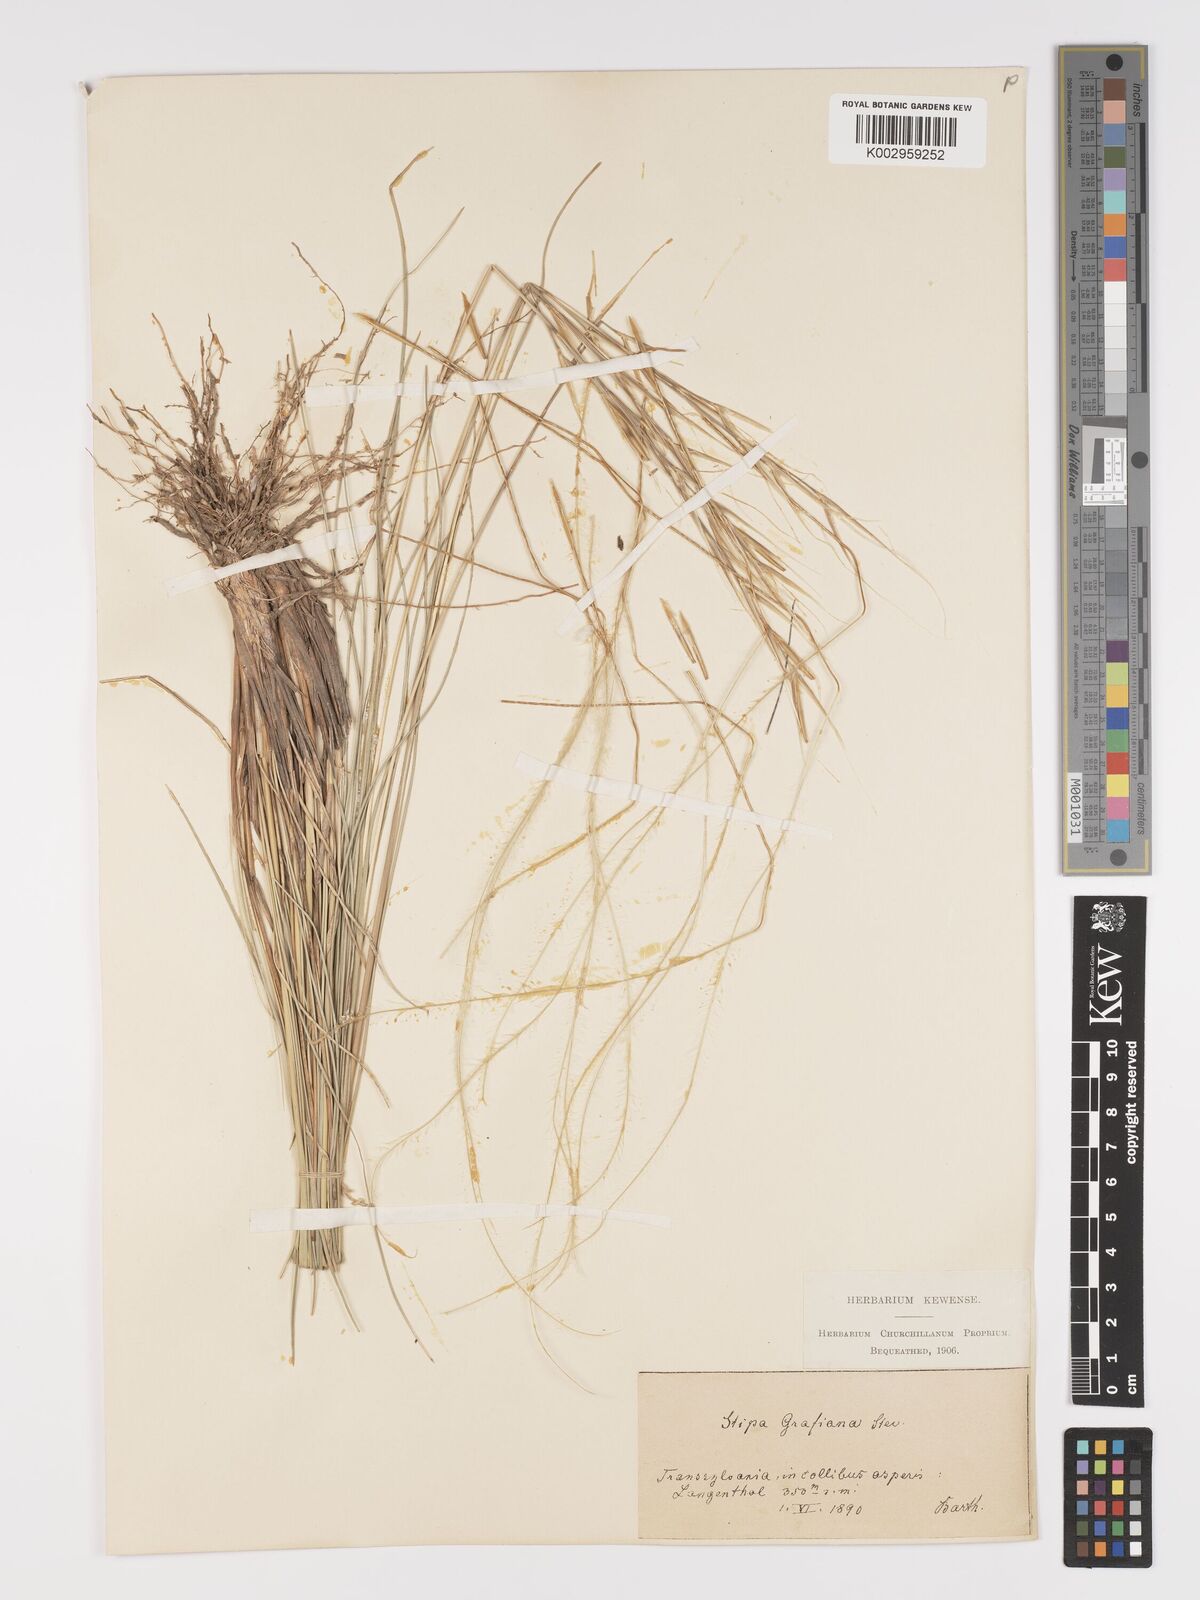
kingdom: Plantae
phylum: Tracheophyta
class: Liliopsida
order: Poales
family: Poaceae
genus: Stipa
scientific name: Stipa pulcherrima
